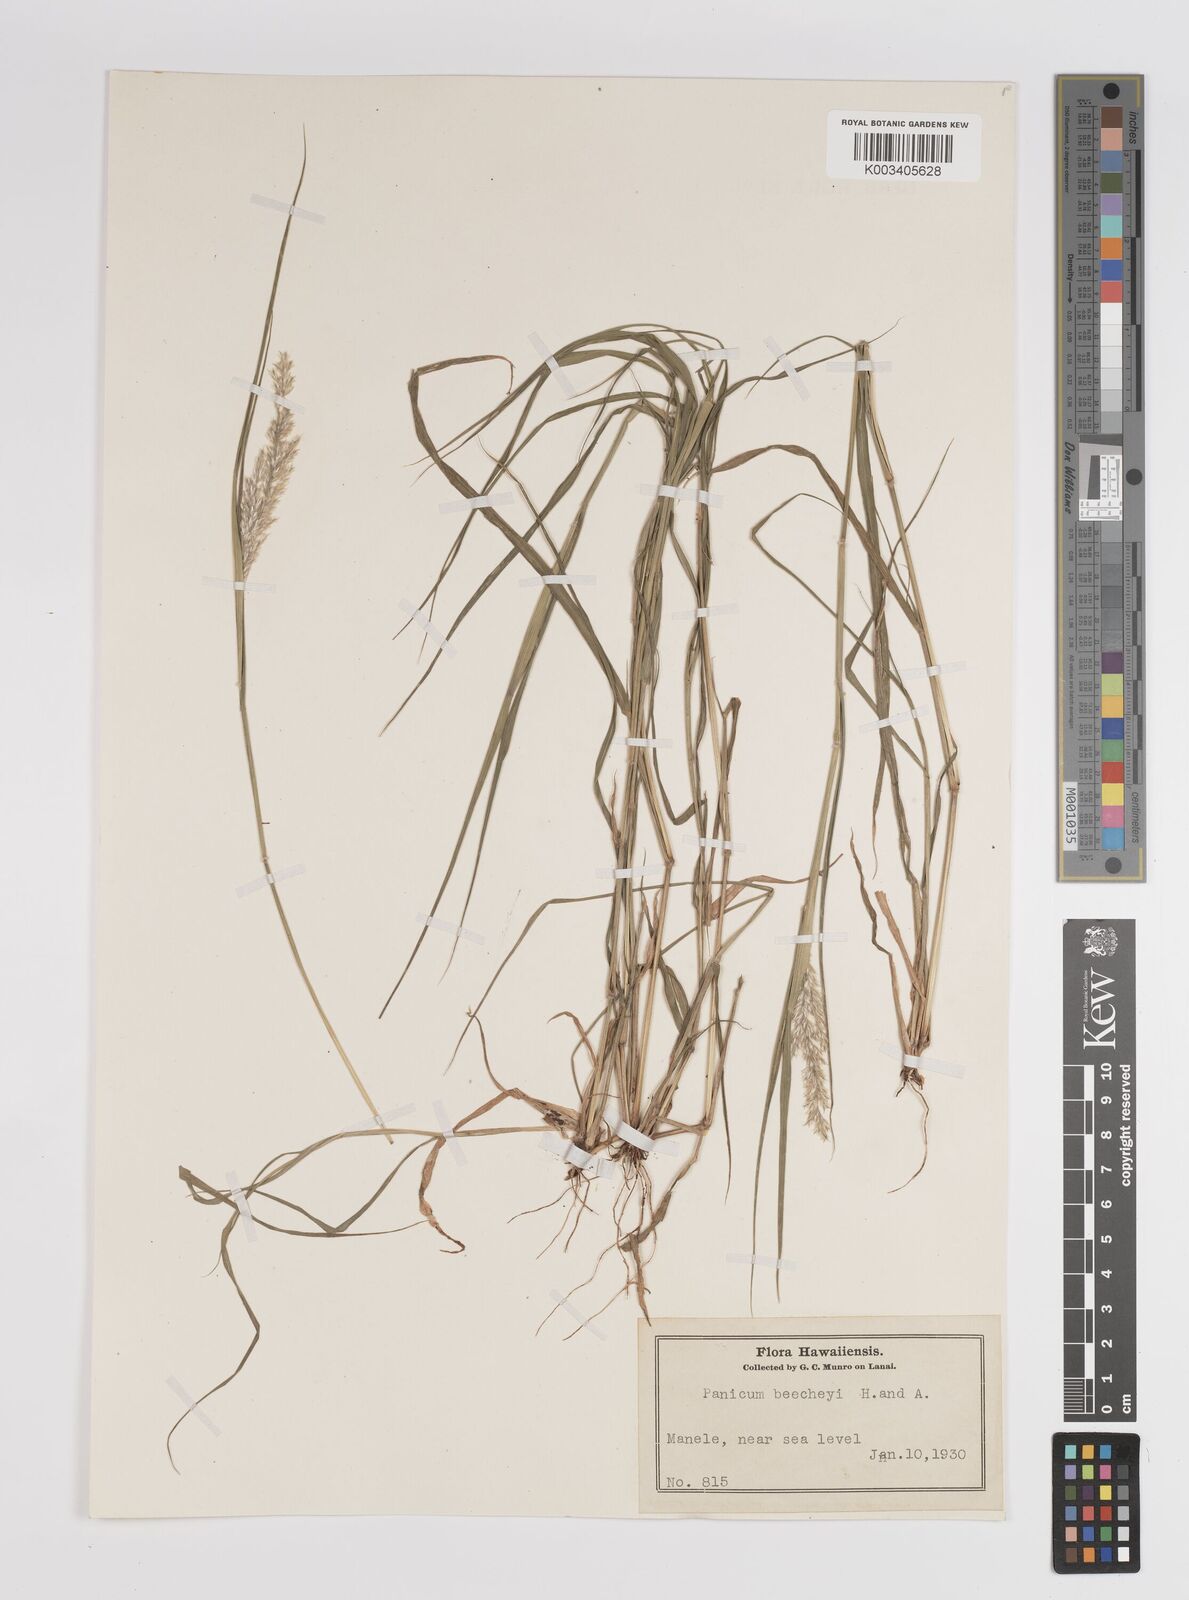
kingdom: Plantae
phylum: Tracheophyta
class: Liliopsida
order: Poales
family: Poaceae
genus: Panicum
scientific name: Panicum beecheyi
